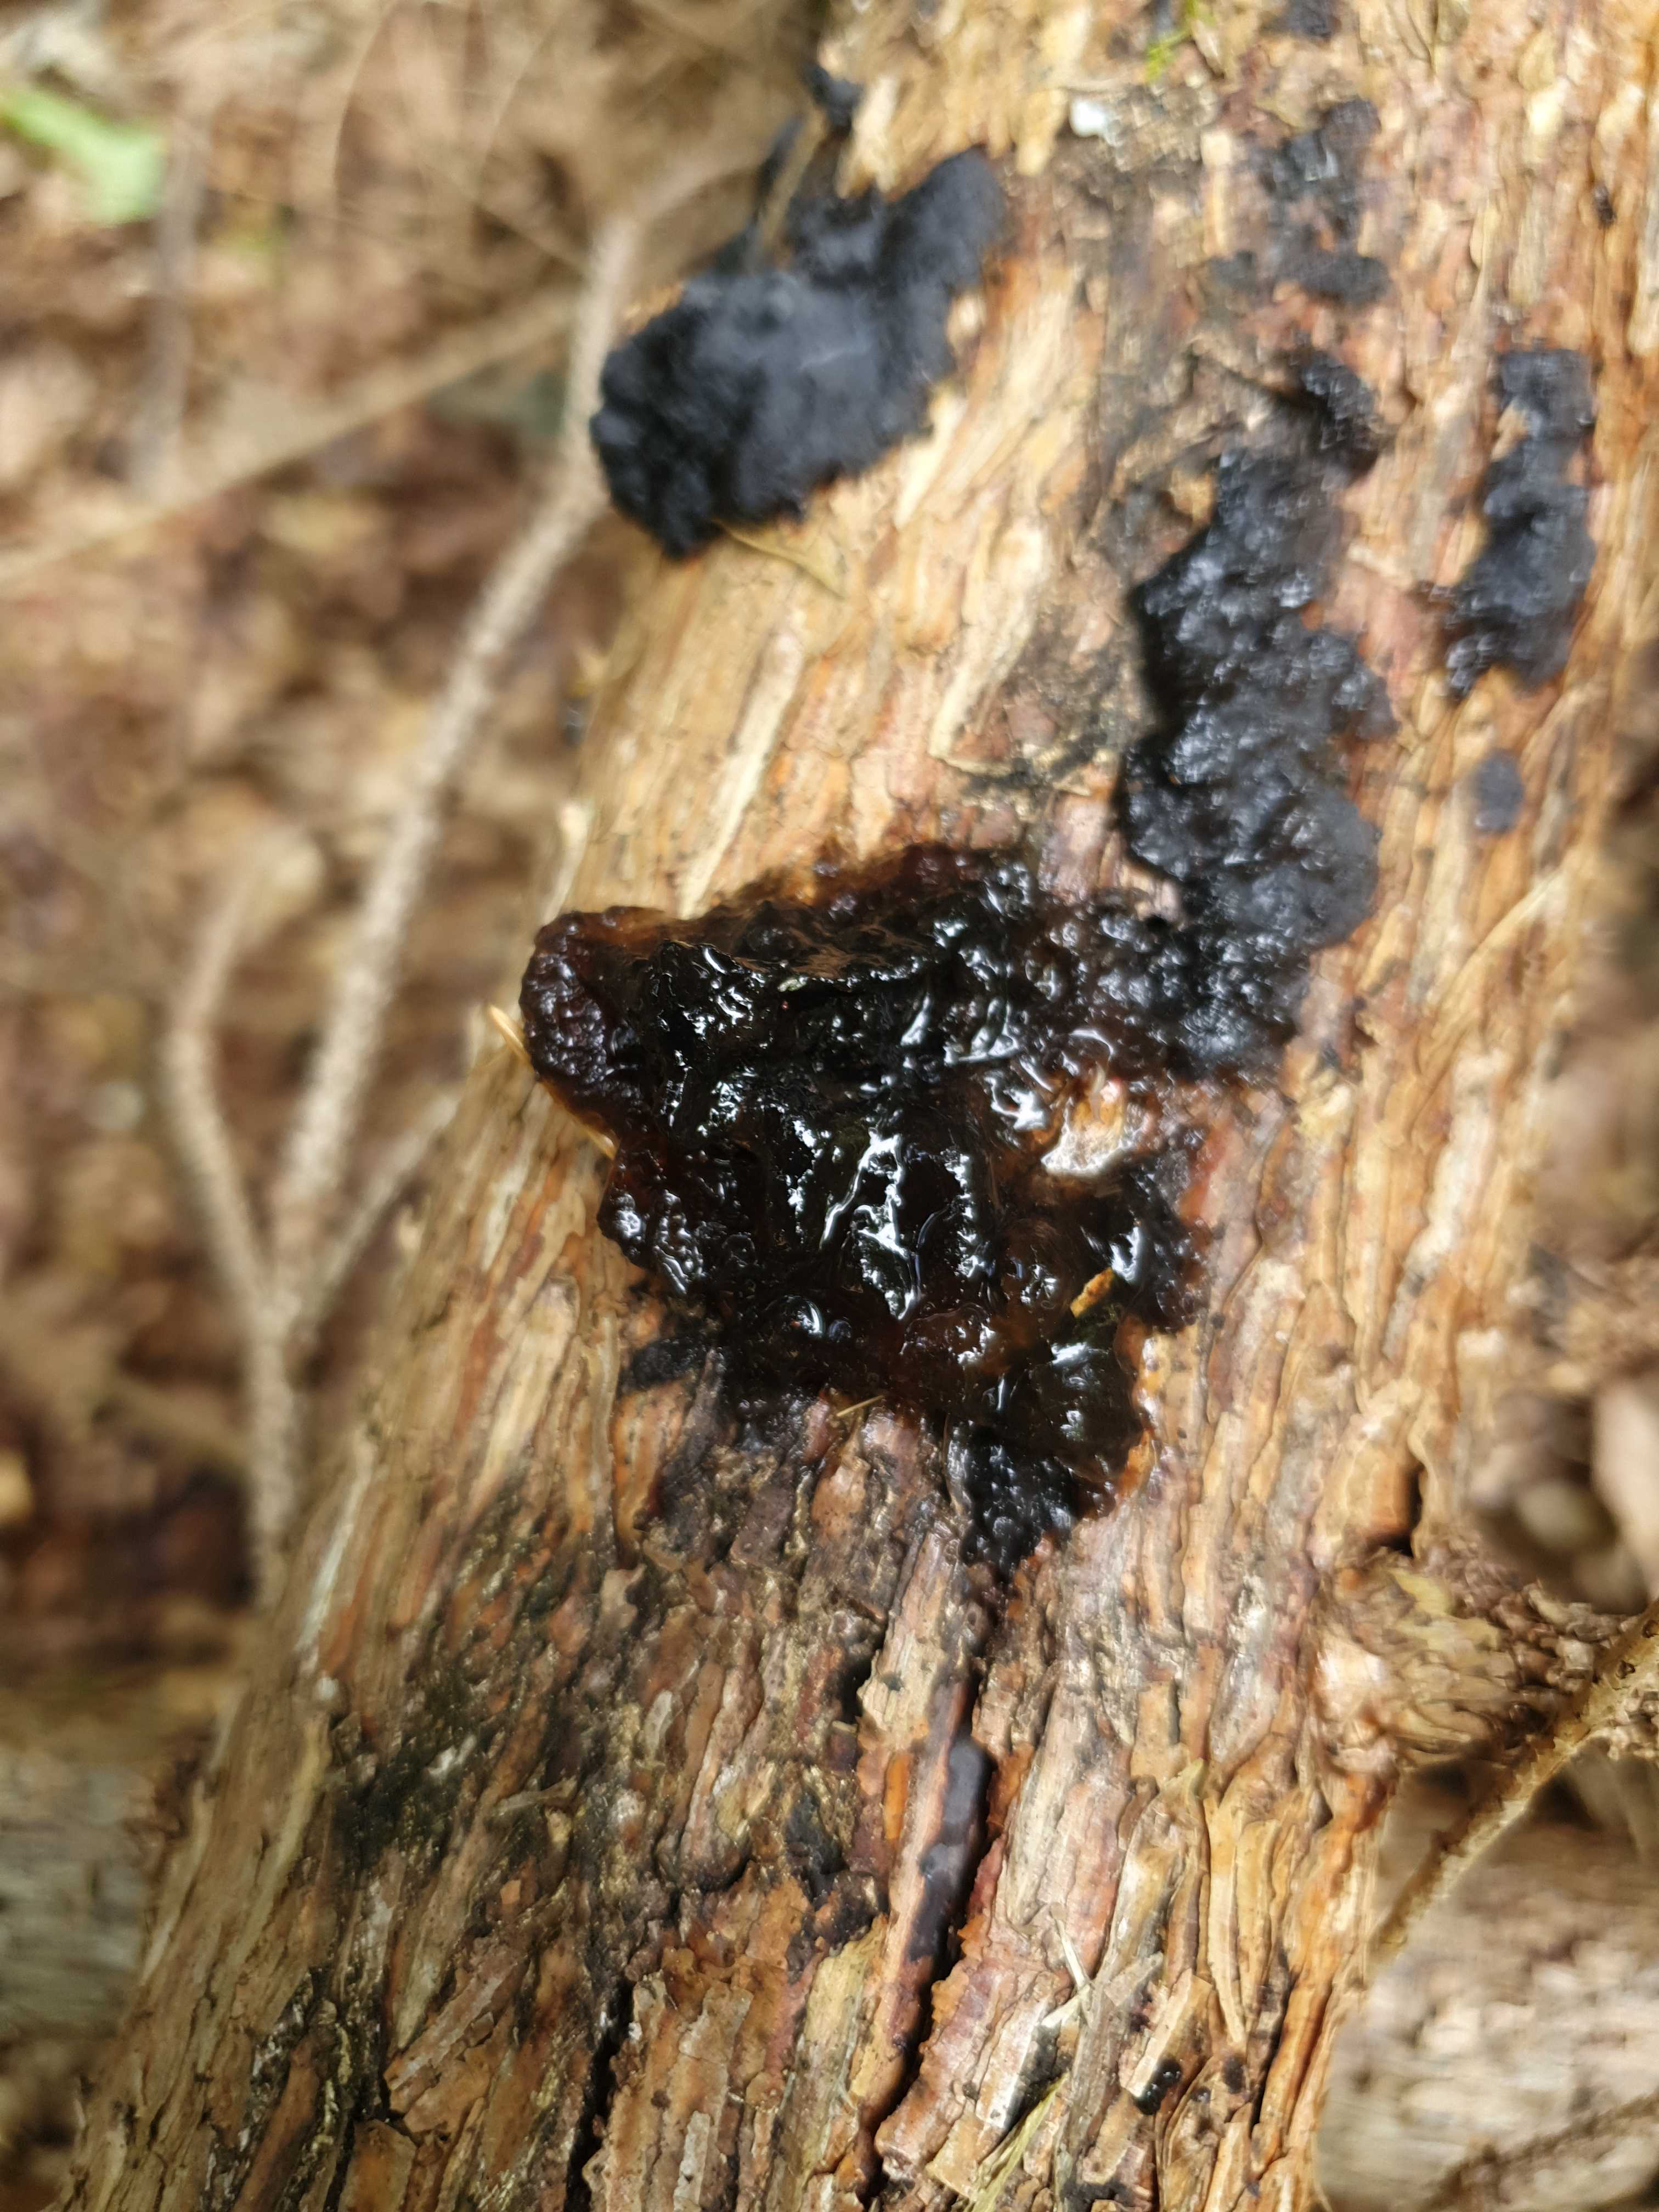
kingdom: Fungi
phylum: Basidiomycota
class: Agaricomycetes
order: Auriculariales
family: Auriculariaceae
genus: Exidia
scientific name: Exidia pithya
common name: gran-bævretop
